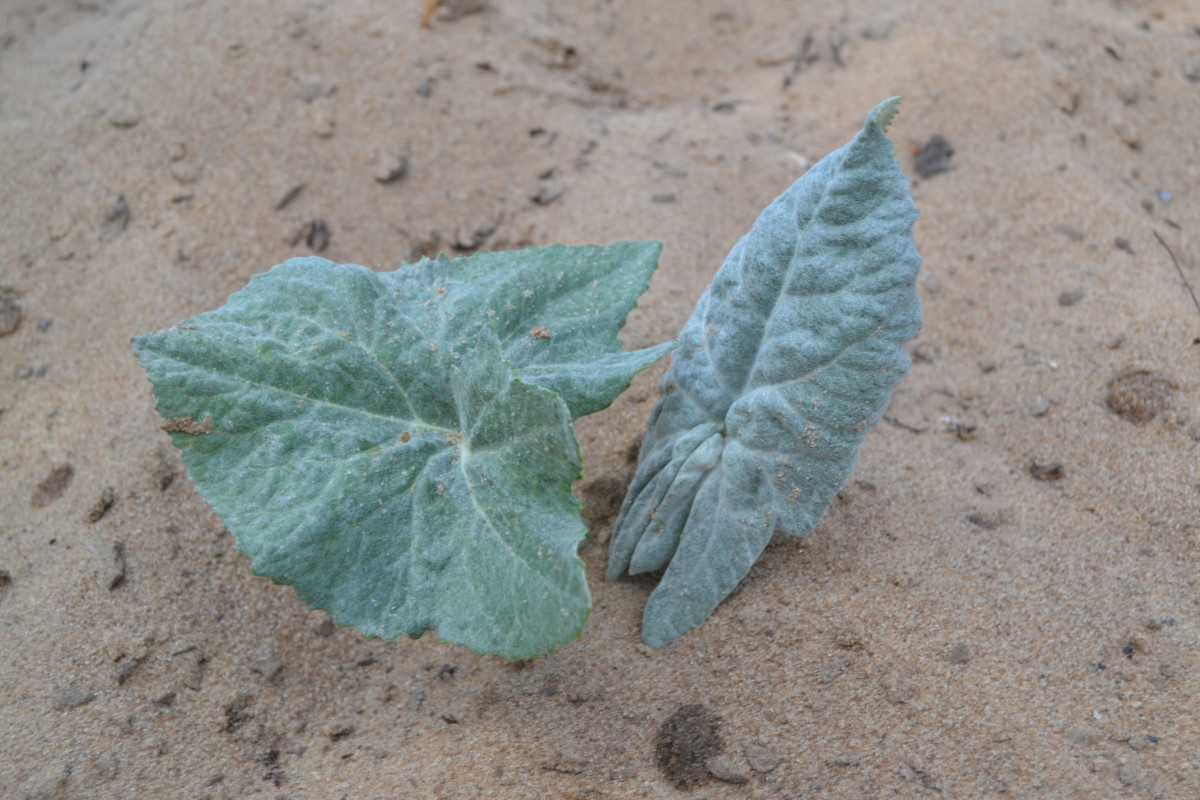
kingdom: Plantae
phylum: Tracheophyta
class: Magnoliopsida
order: Asterales
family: Asteraceae
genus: Petasites
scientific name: Petasites spurius
